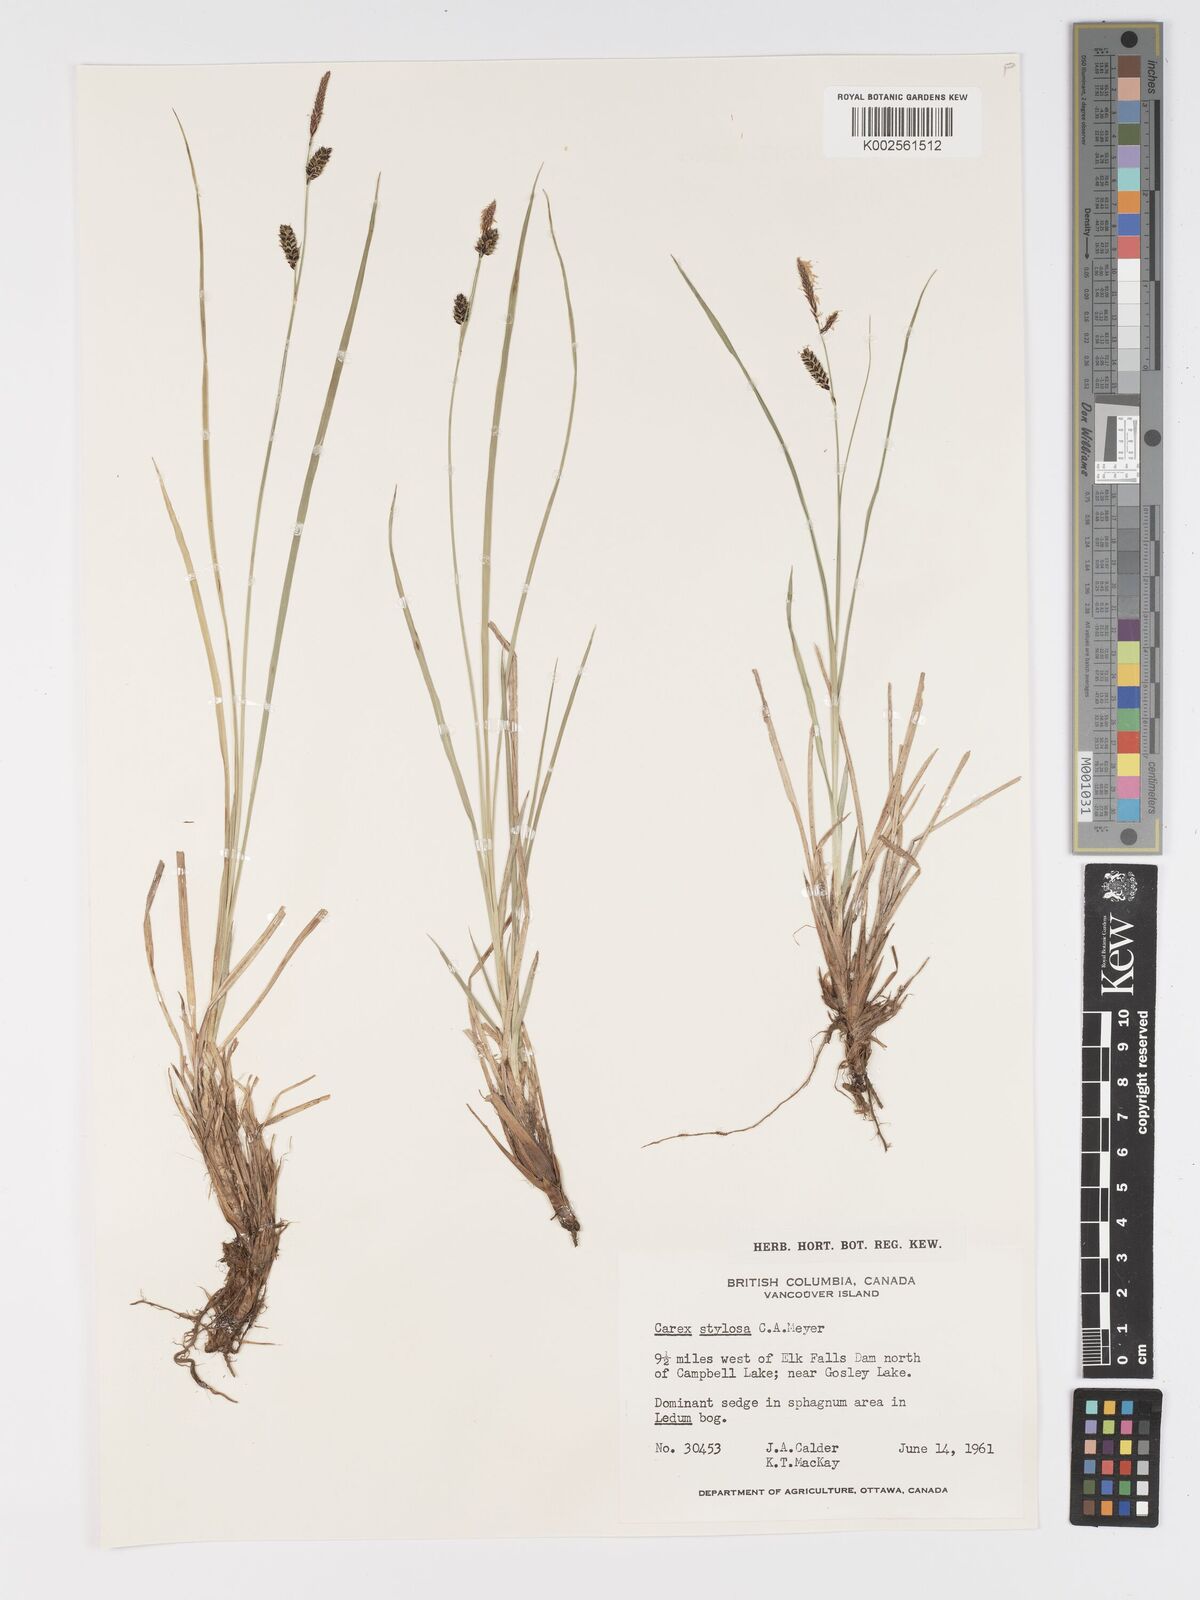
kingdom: Plantae
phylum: Tracheophyta
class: Liliopsida
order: Poales
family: Cyperaceae
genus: Carex
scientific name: Carex stylosa
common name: Long-styled sedge
